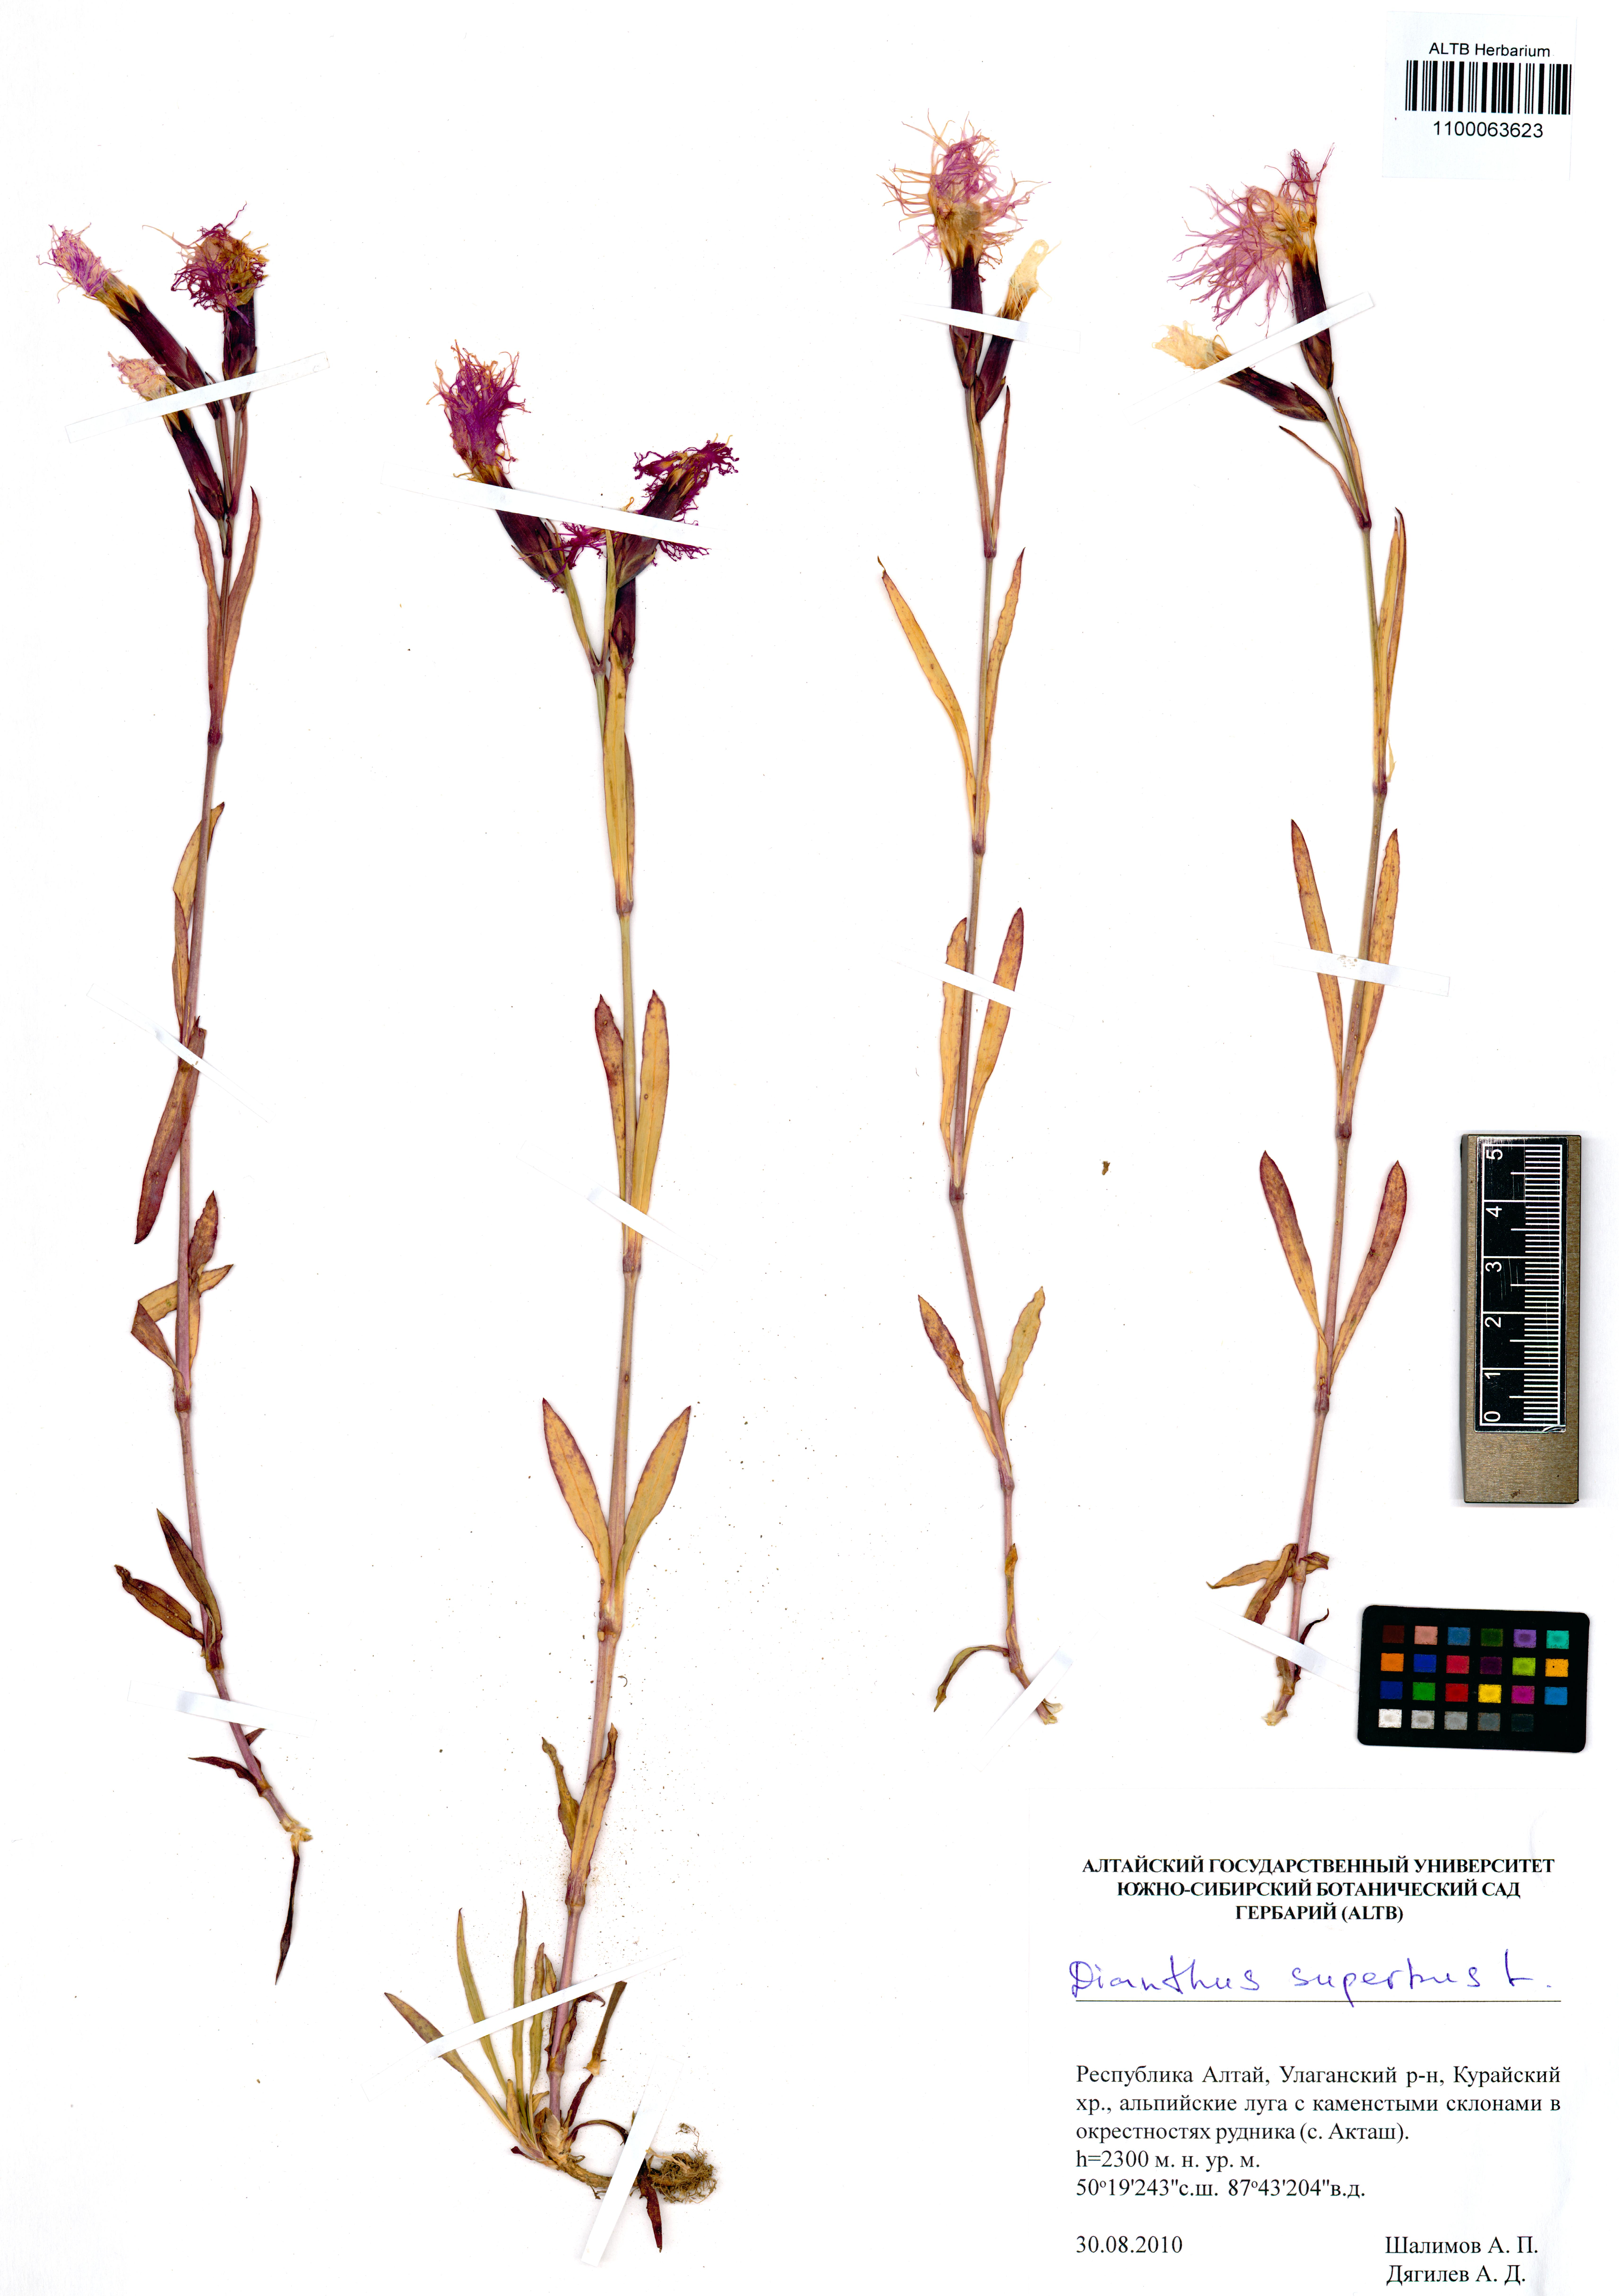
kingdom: Plantae
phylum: Tracheophyta
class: Magnoliopsida
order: Caryophyllales
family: Caryophyllaceae
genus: Dianthus
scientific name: Dianthus superbus
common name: Fringed pink
